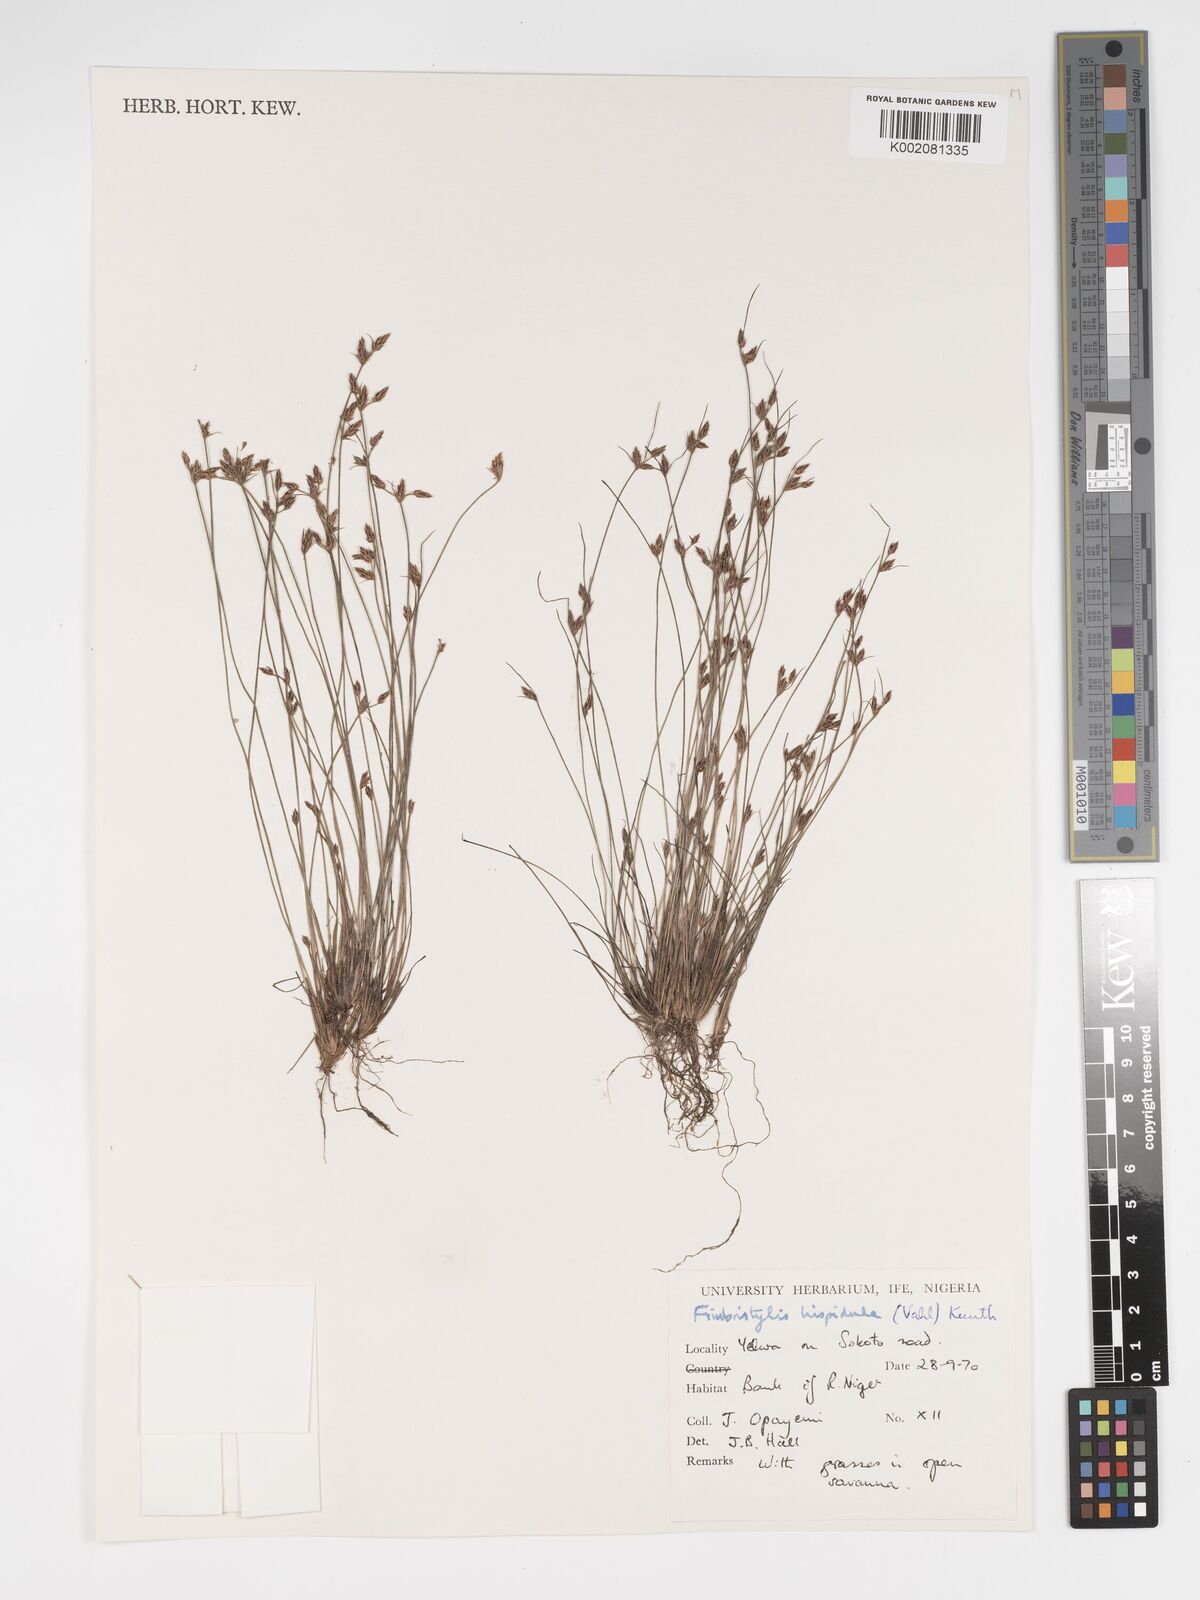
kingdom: Plantae
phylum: Tracheophyta
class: Liliopsida
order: Poales
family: Cyperaceae
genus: Bulbostylis
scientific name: Bulbostylis hispidula
